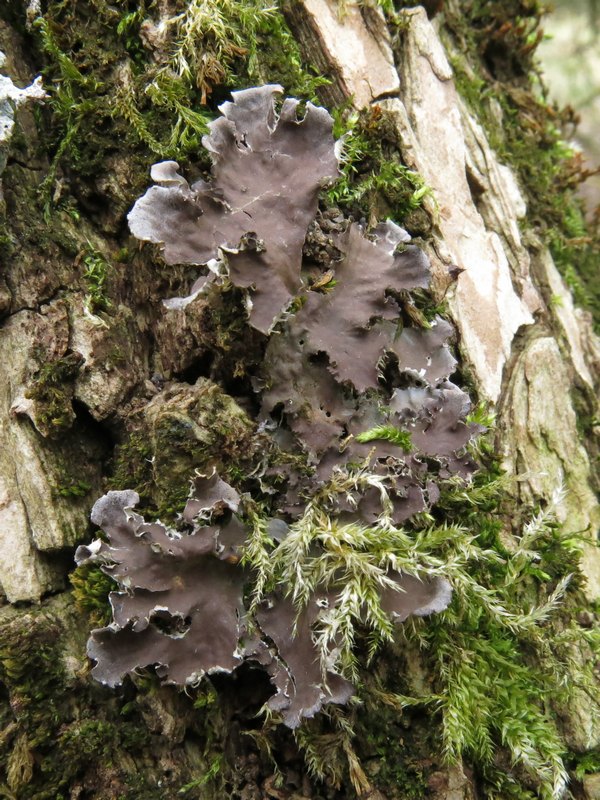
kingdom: Fungi
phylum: Ascomycota
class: Lecanoromycetes
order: Peltigerales
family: Peltigeraceae
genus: Peltigera
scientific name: Peltigera praetextata
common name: kruset skjoldlav
